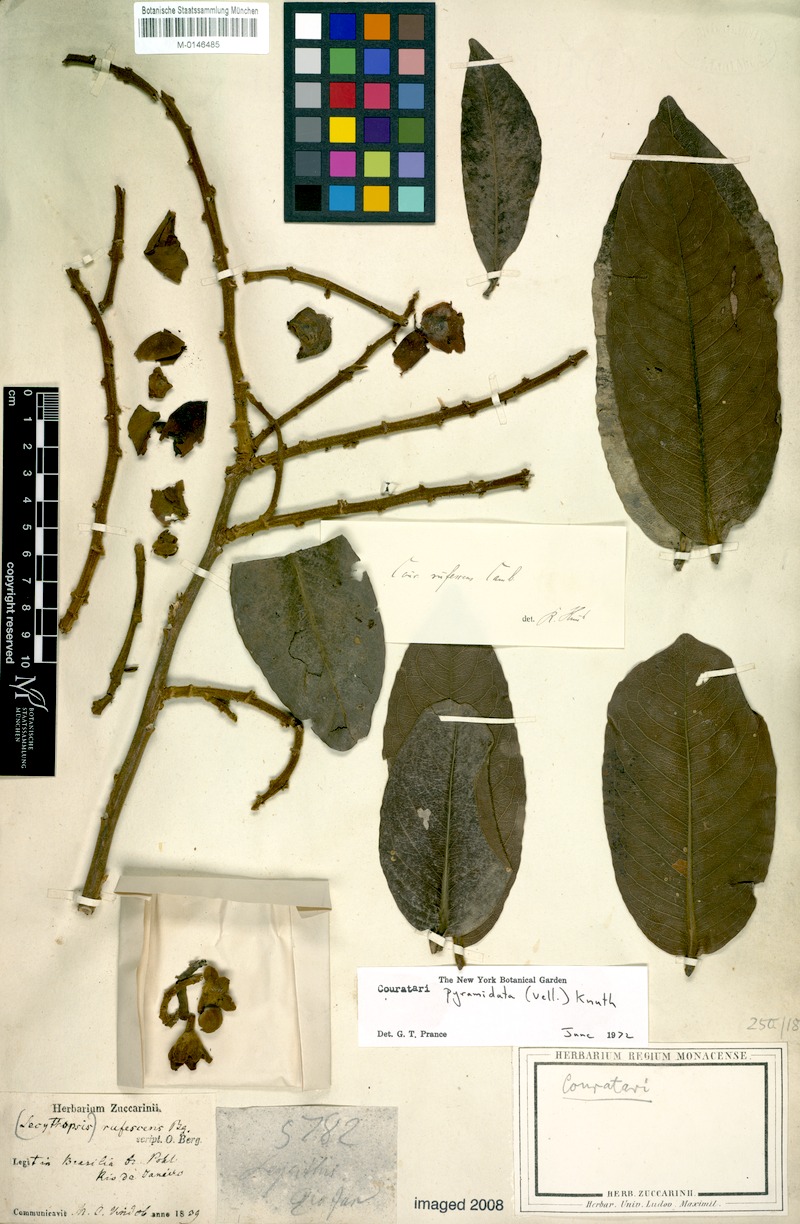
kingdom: Plantae
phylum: Tracheophyta
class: Magnoliopsida
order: Ericales
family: Lecythidaceae
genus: Couratari
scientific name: Couratari pyramidata
